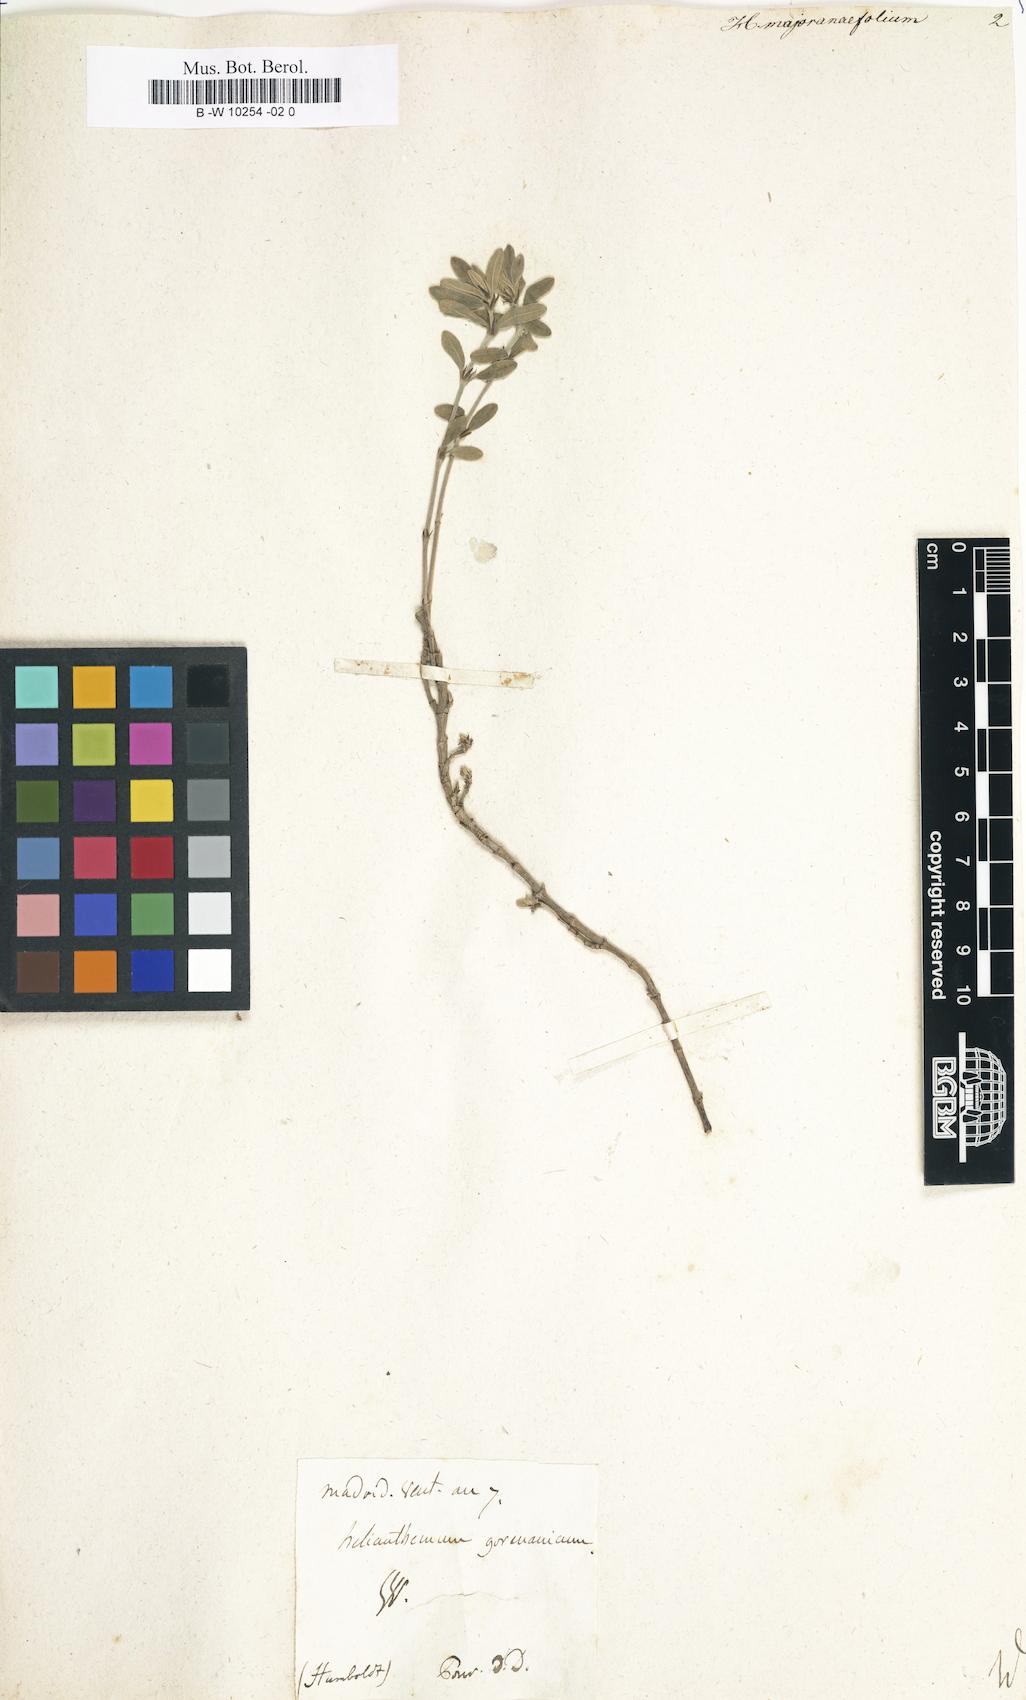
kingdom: Plantae
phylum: Tracheophyta
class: Magnoliopsida
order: Malvales
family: Cistaceae
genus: Helianthemum
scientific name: Helianthemum hirtum
